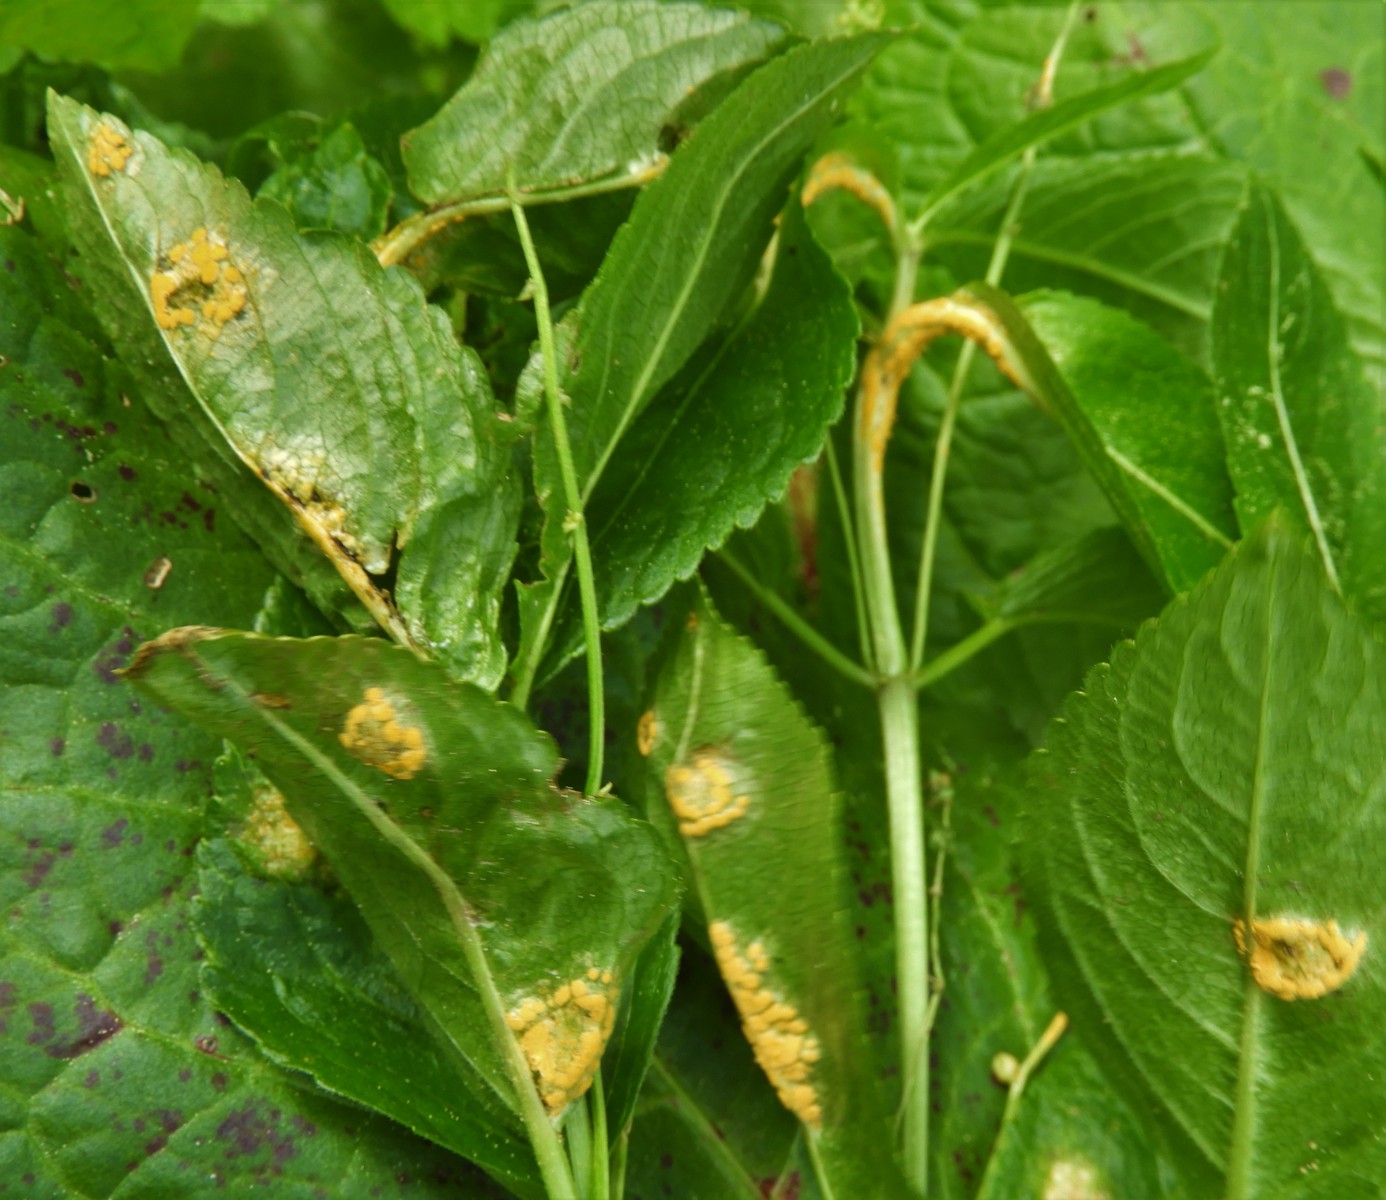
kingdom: Fungi
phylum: Basidiomycota
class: Pucciniomycetes
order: Pucciniales
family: Melampsoraceae
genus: Melampsora
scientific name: Melampsora populnea
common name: poppel-skorperust
